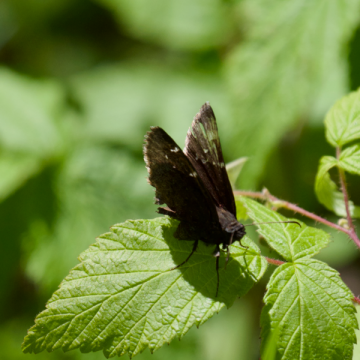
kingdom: Animalia
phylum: Arthropoda
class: Insecta
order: Lepidoptera
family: Hesperiidae
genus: Autochton
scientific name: Autochton
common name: Northern Cloudywing
